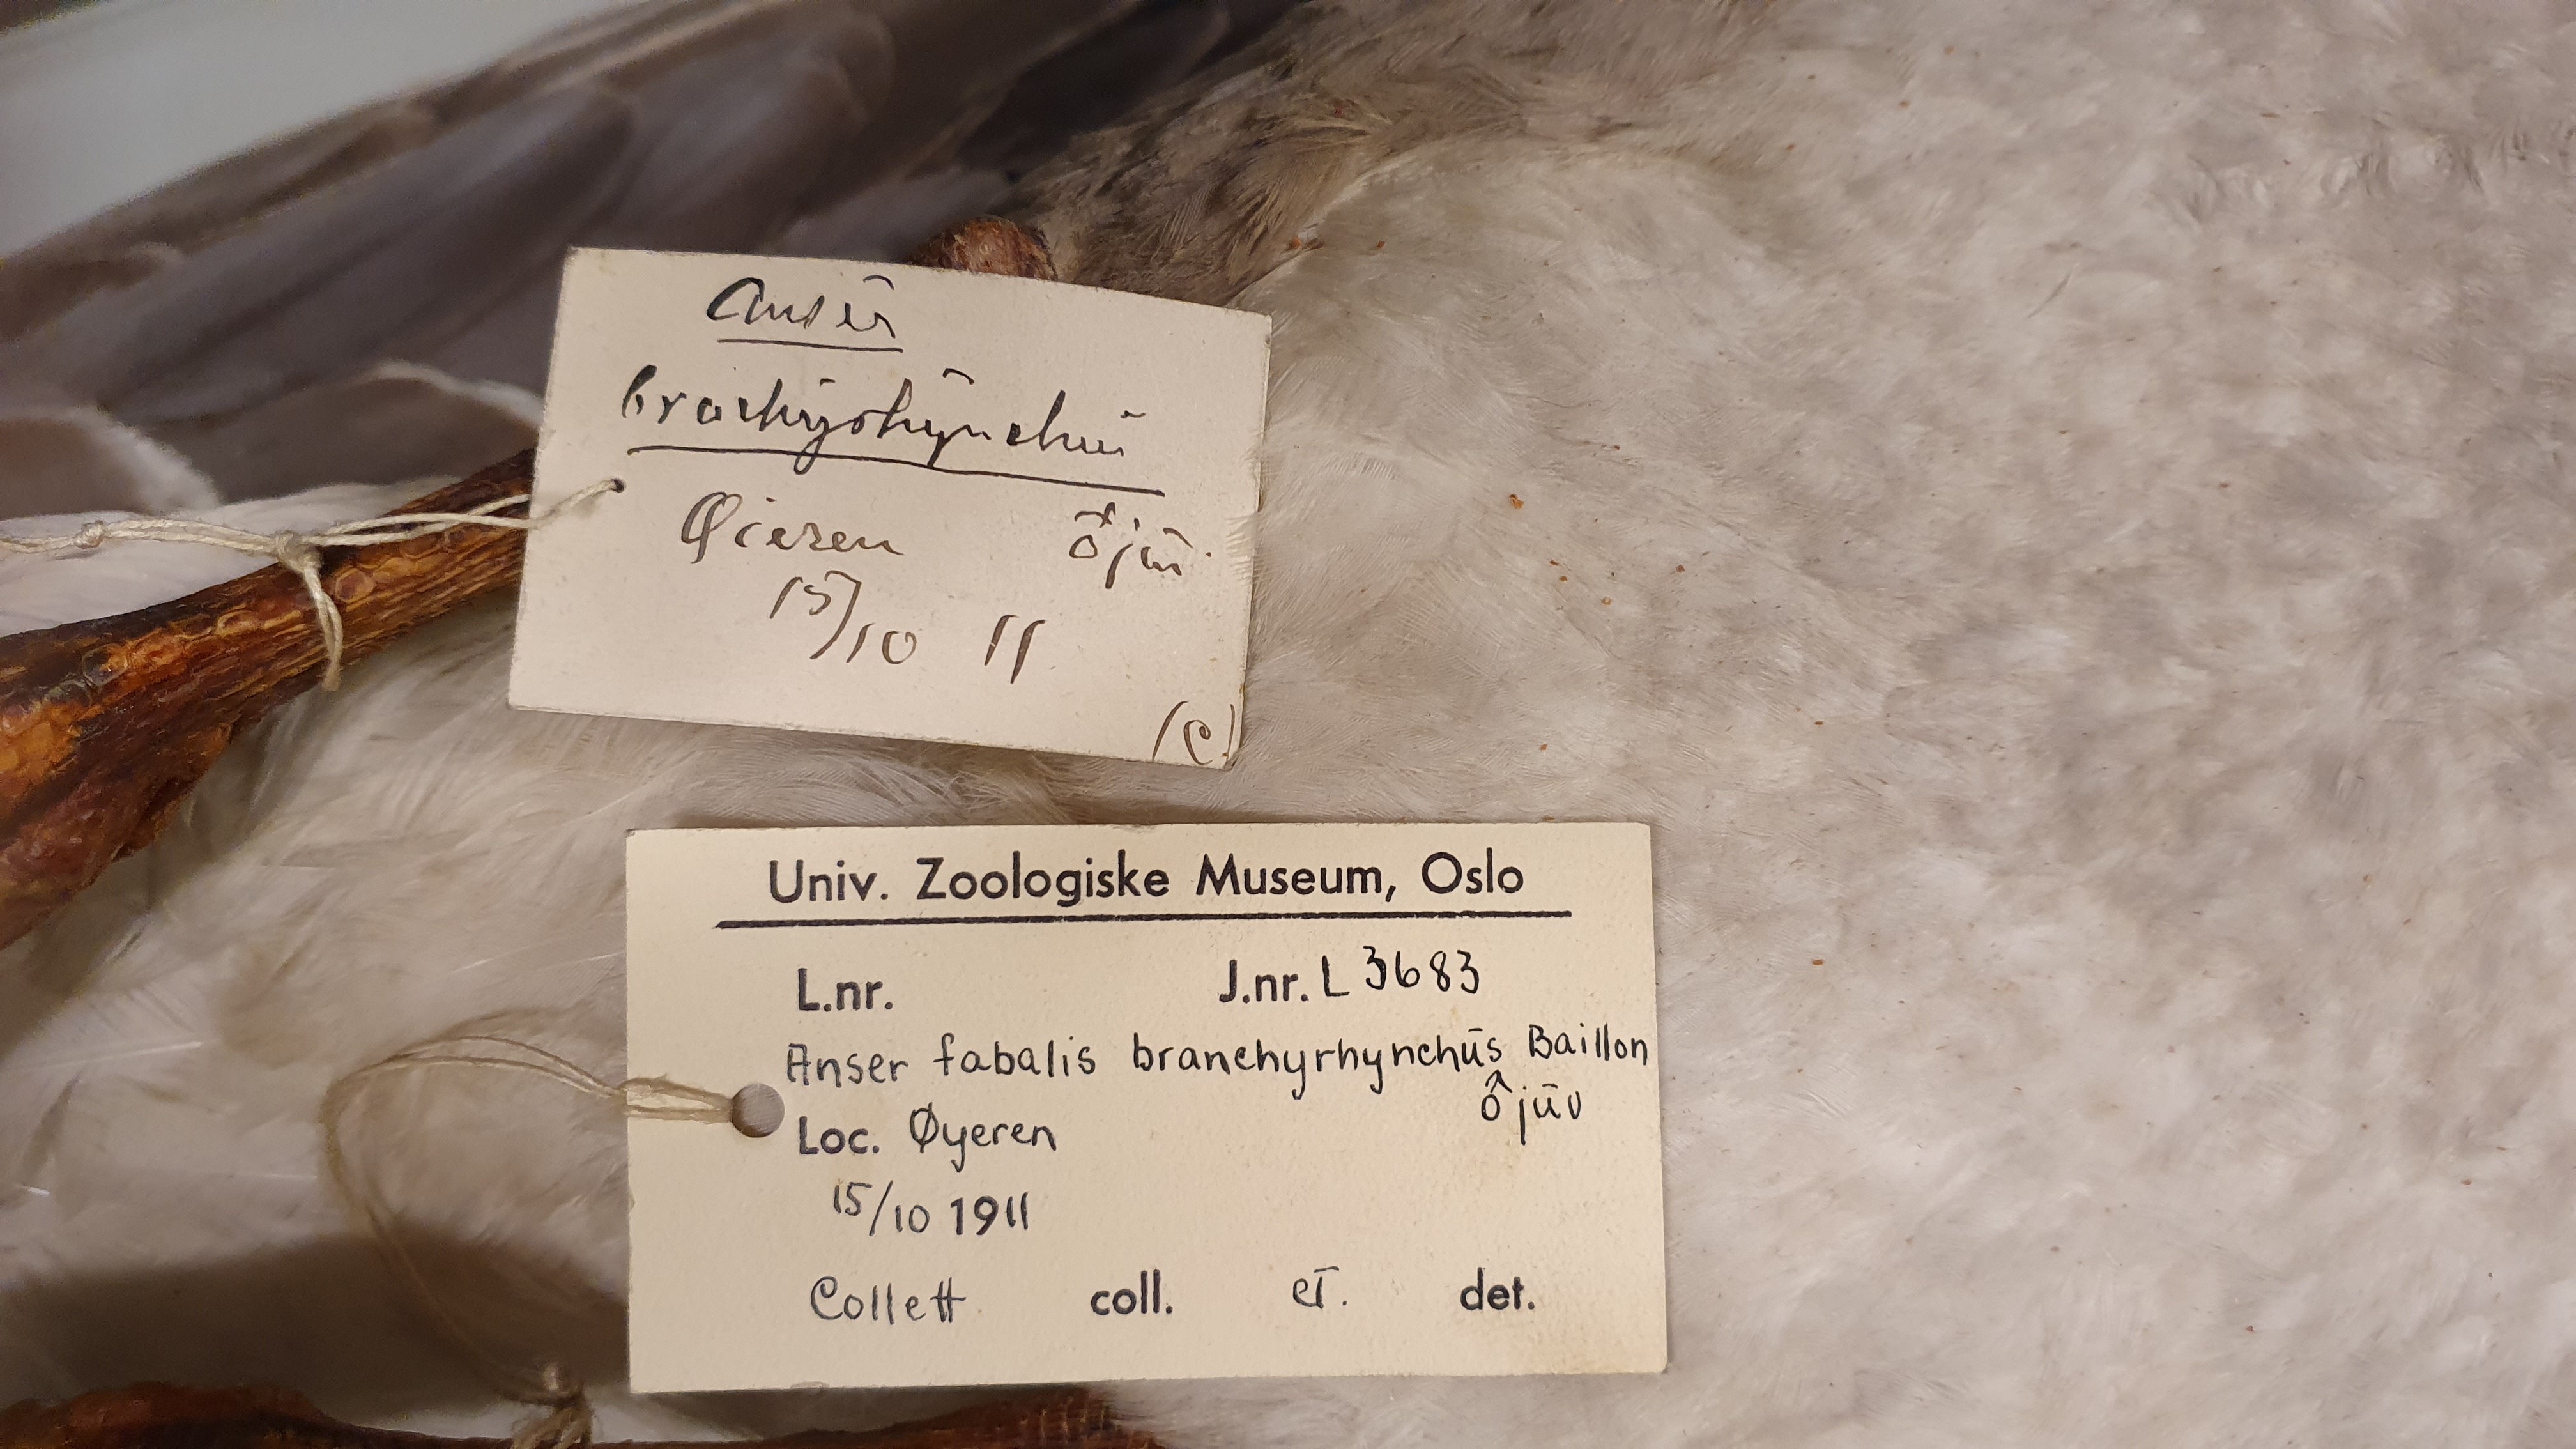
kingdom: Animalia
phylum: Chordata
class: Aves
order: Anseriformes
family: Anatidae
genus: Anser
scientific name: Anser brachyrhynchus
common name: Pink-footed goose
